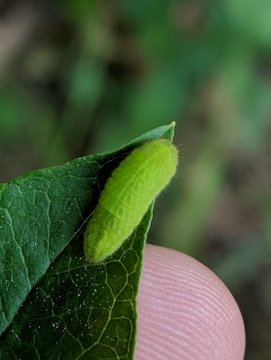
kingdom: Animalia
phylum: Arthropoda
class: Insecta
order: Lepidoptera
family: Lycaenidae
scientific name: Lycaenidae
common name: Gossamerwings
